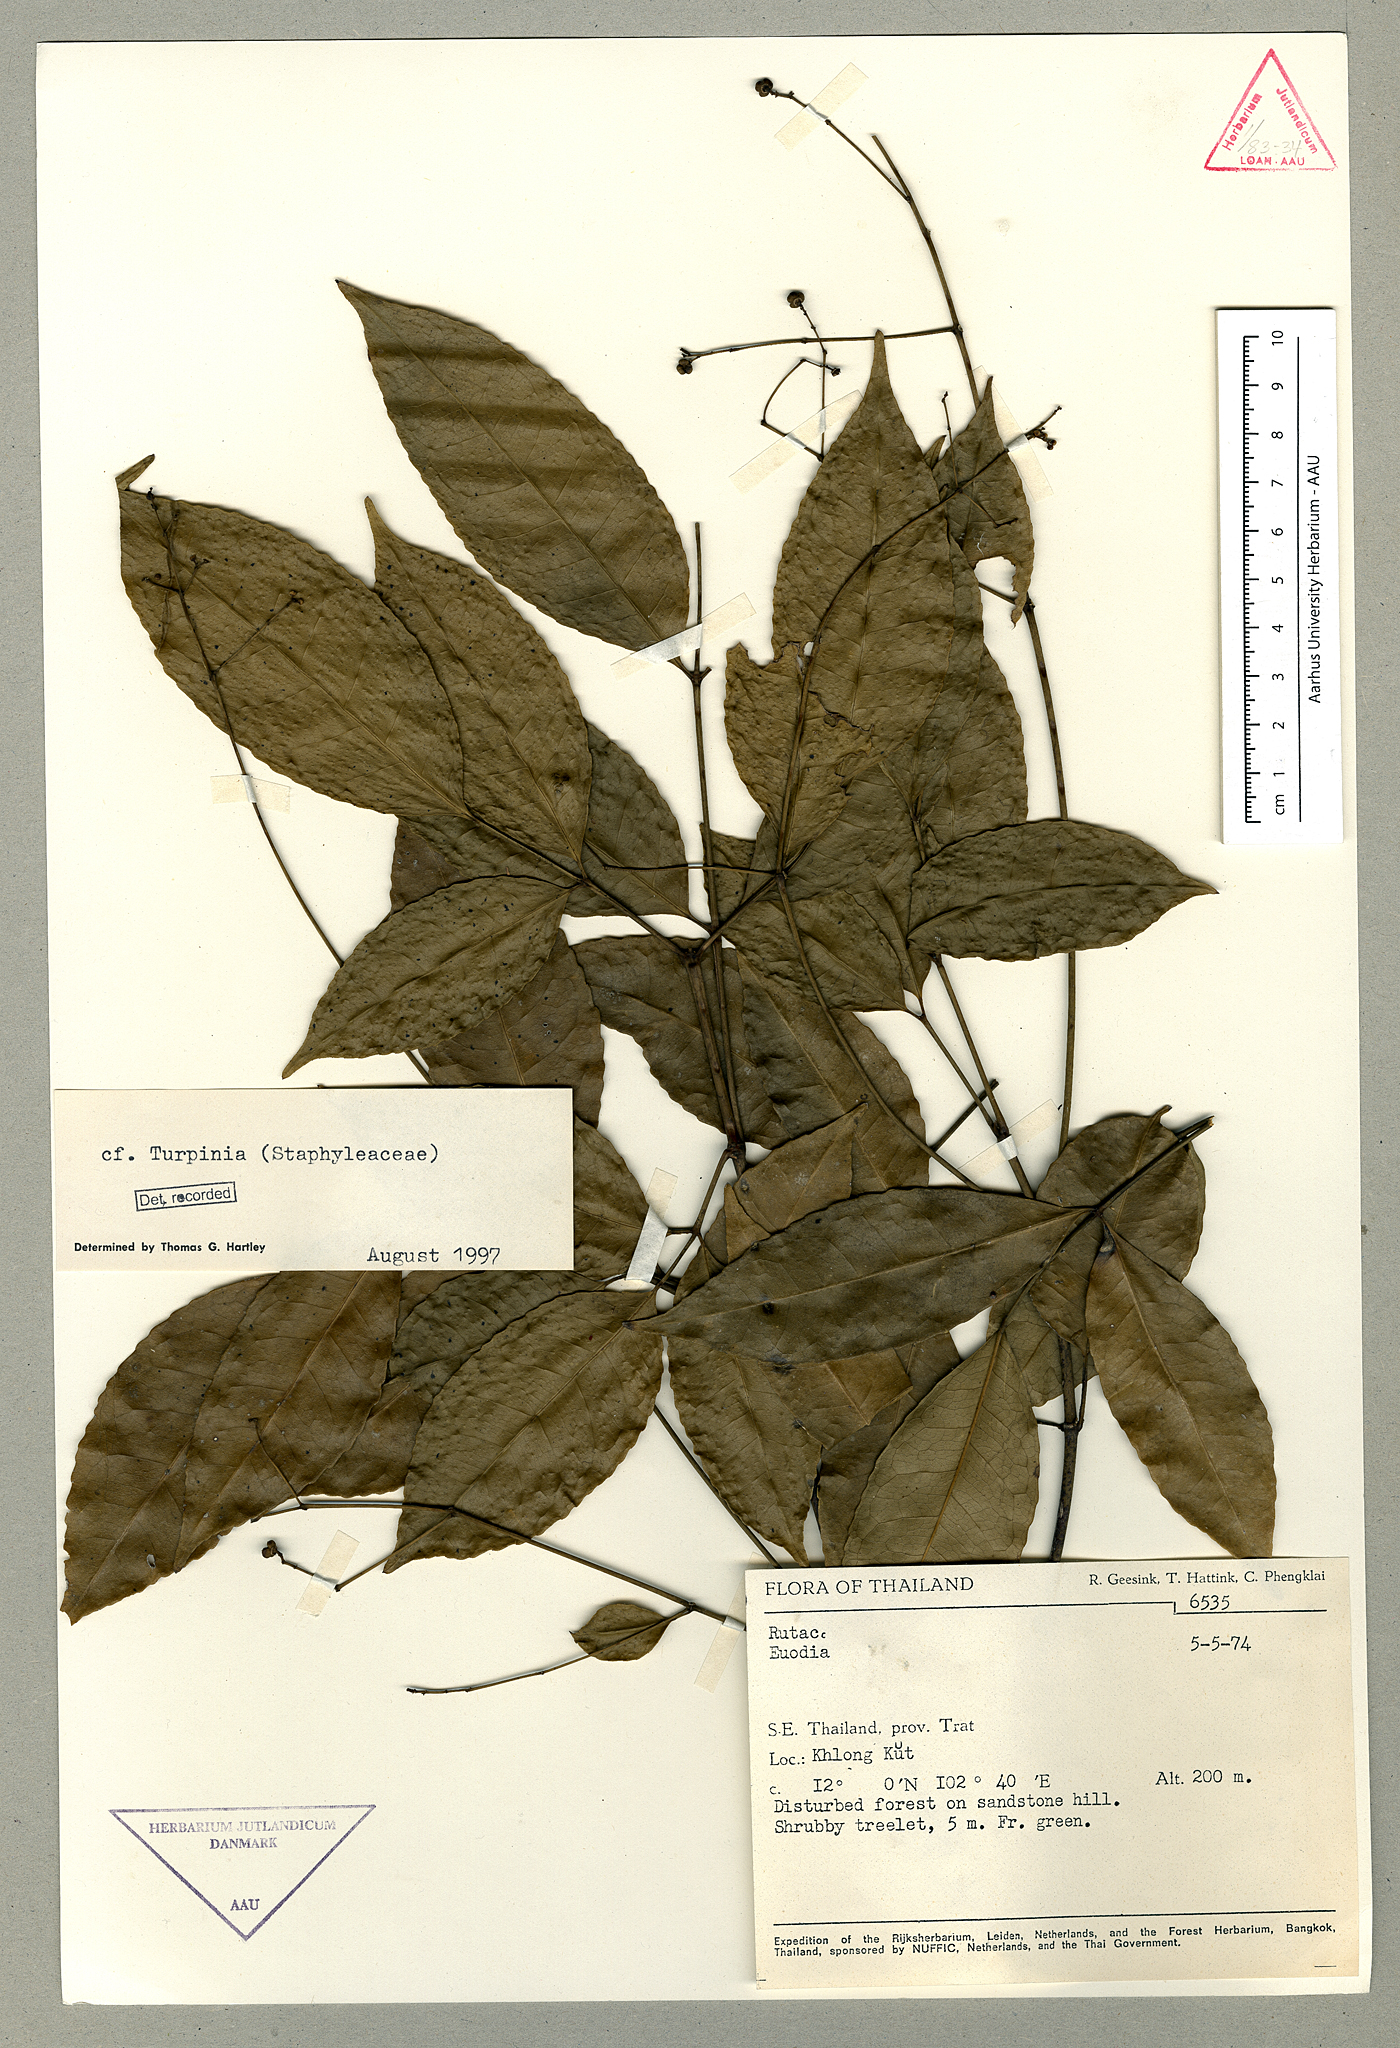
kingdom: Plantae
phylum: Tracheophyta
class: Magnoliopsida
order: Crossosomatales
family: Staphyleaceae
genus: Dalrympelea
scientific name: Dalrympelea sphaerocarpa
